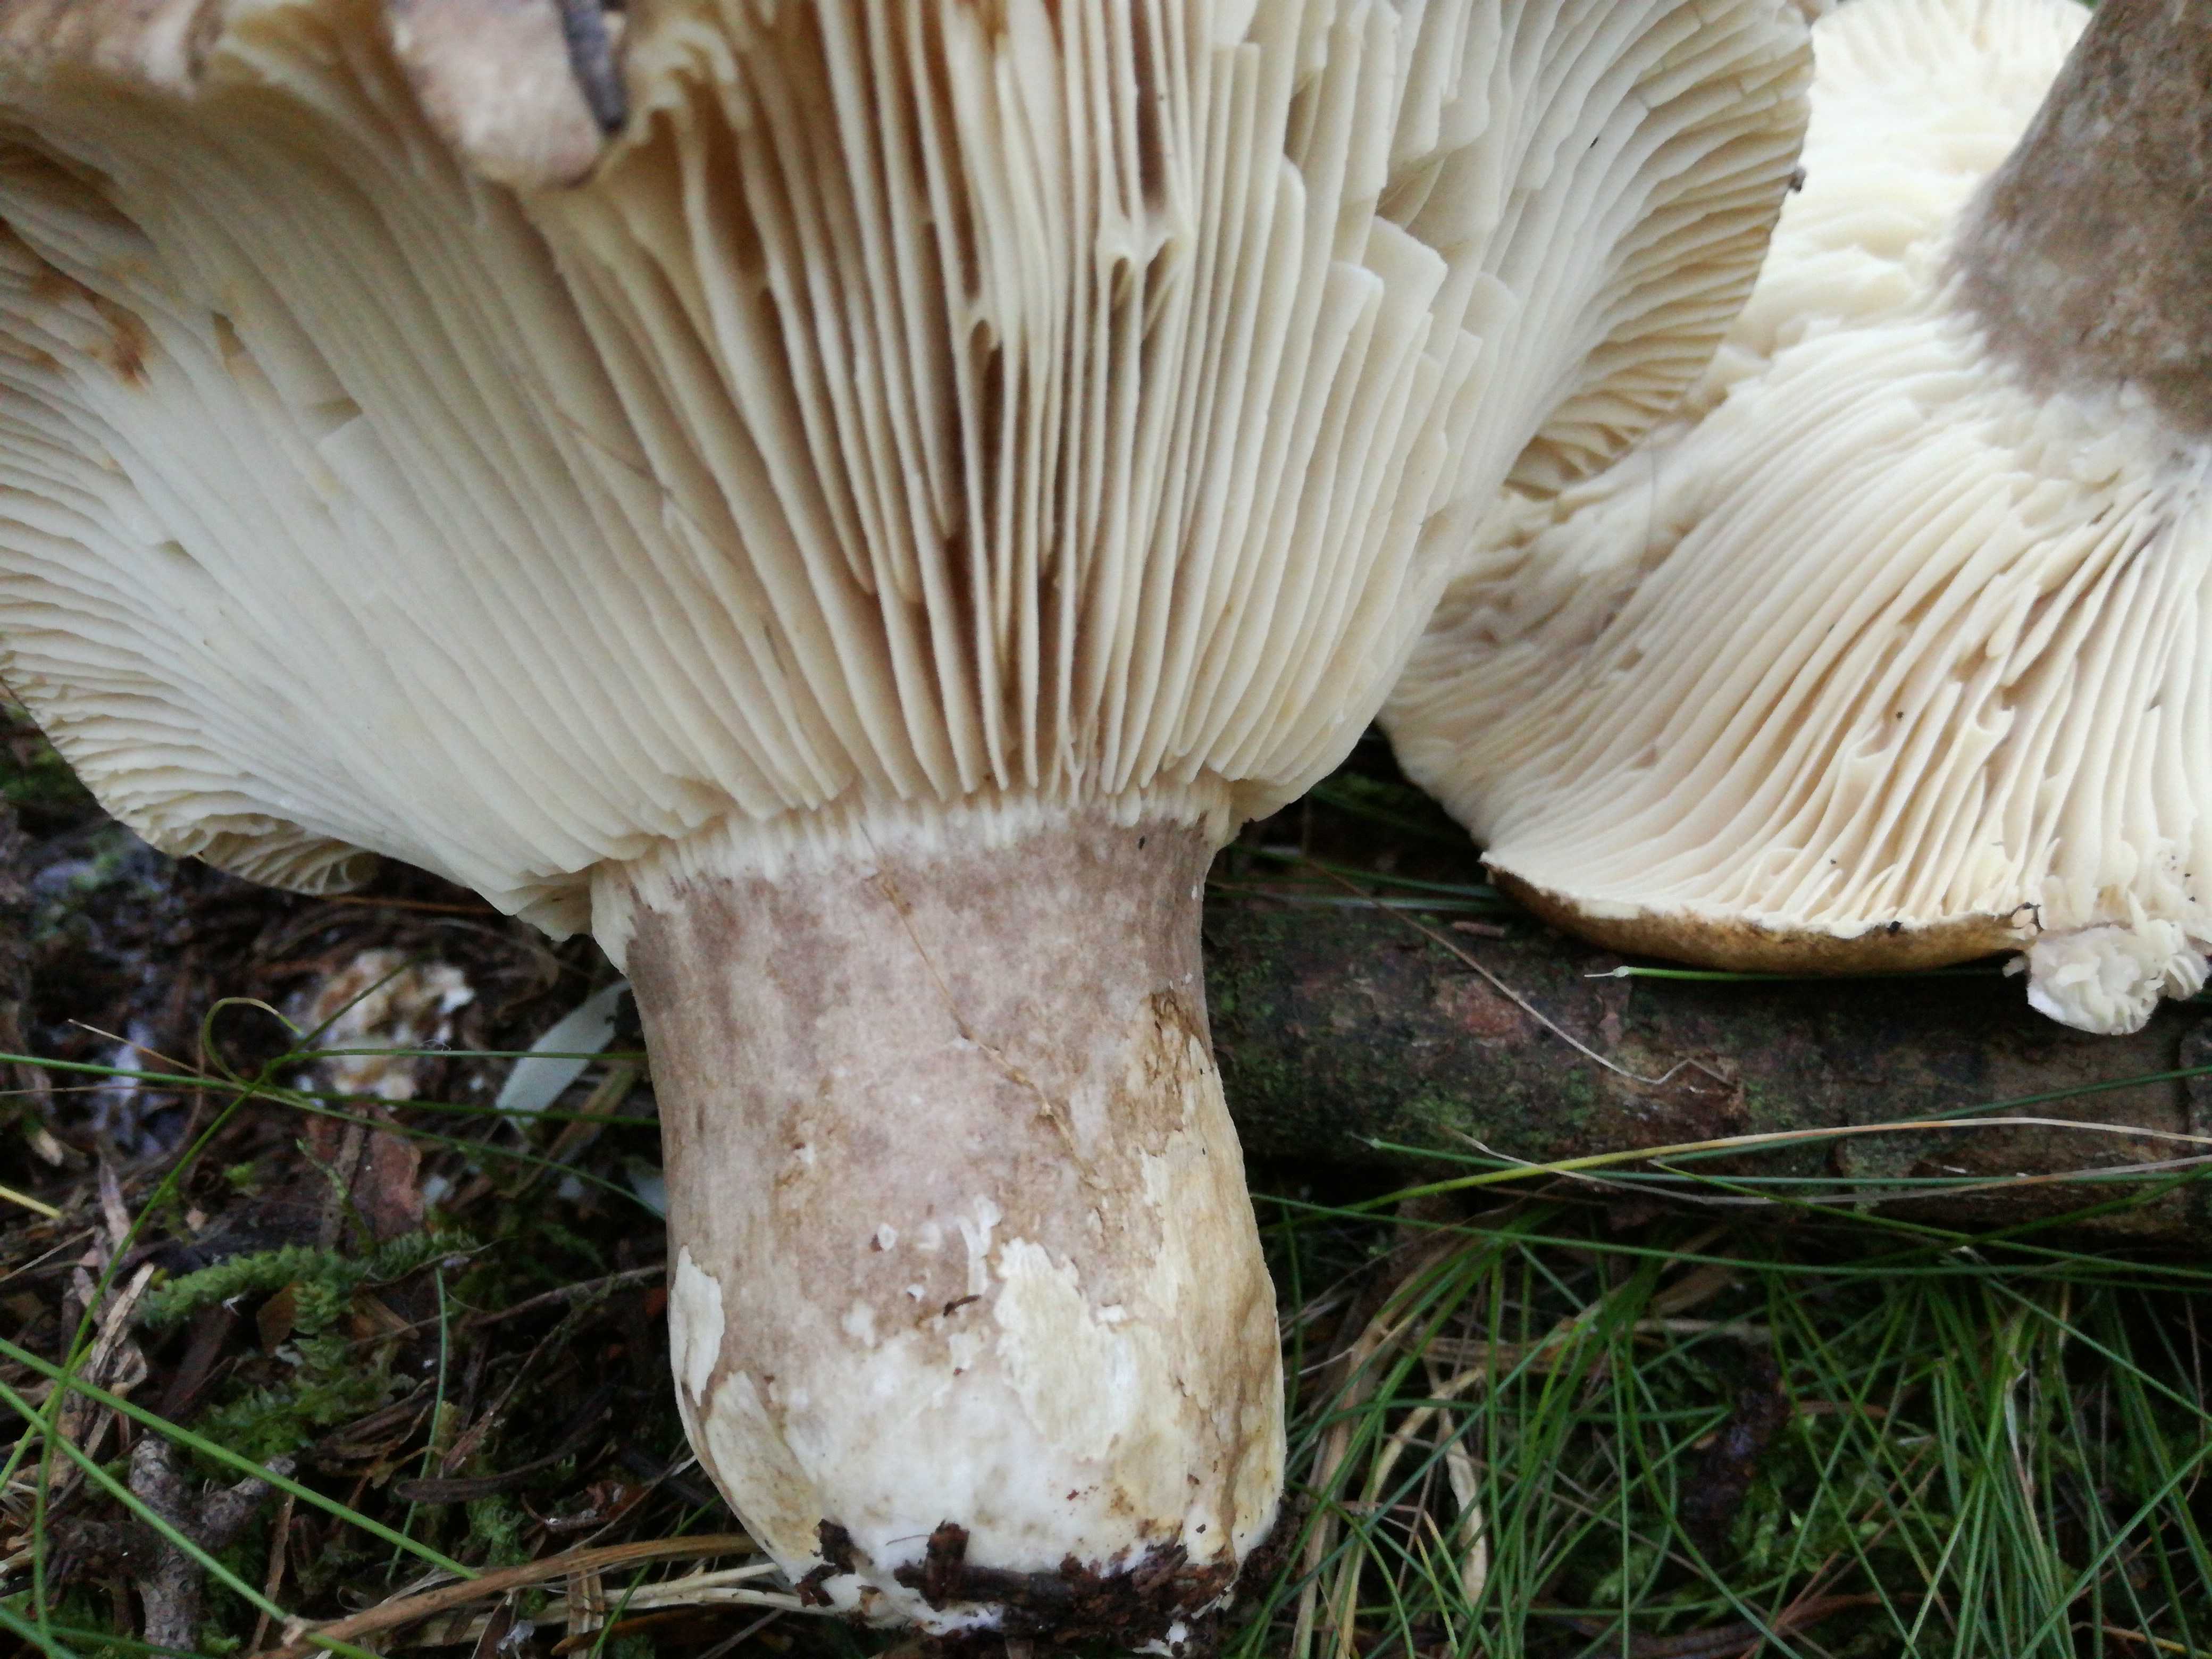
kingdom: Fungi
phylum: Basidiomycota
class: Agaricomycetes
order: Russulales
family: Russulaceae
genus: Russula
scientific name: Russula adusta
